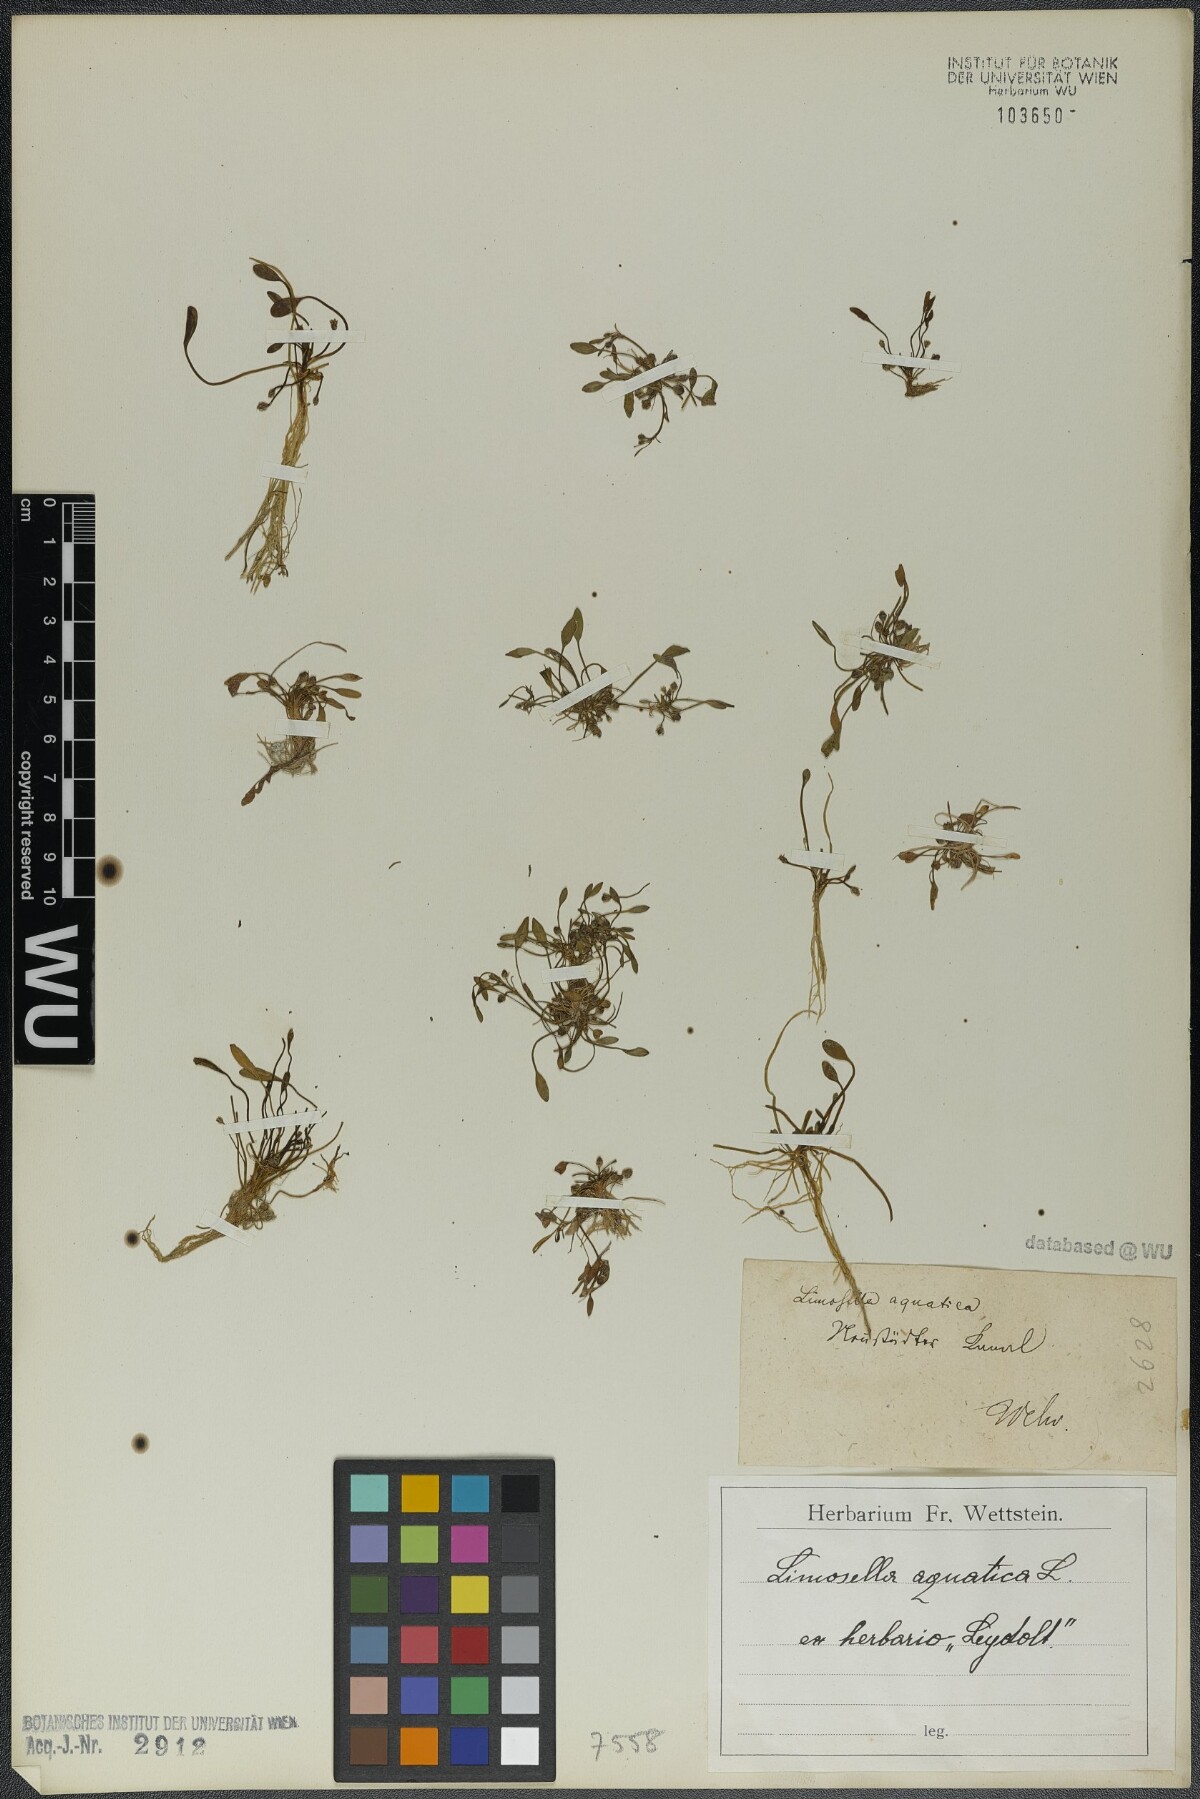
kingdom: Plantae
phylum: Tracheophyta
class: Magnoliopsida
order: Lamiales
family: Scrophulariaceae
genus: Limosella
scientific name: Limosella aquatica
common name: Mudwort
